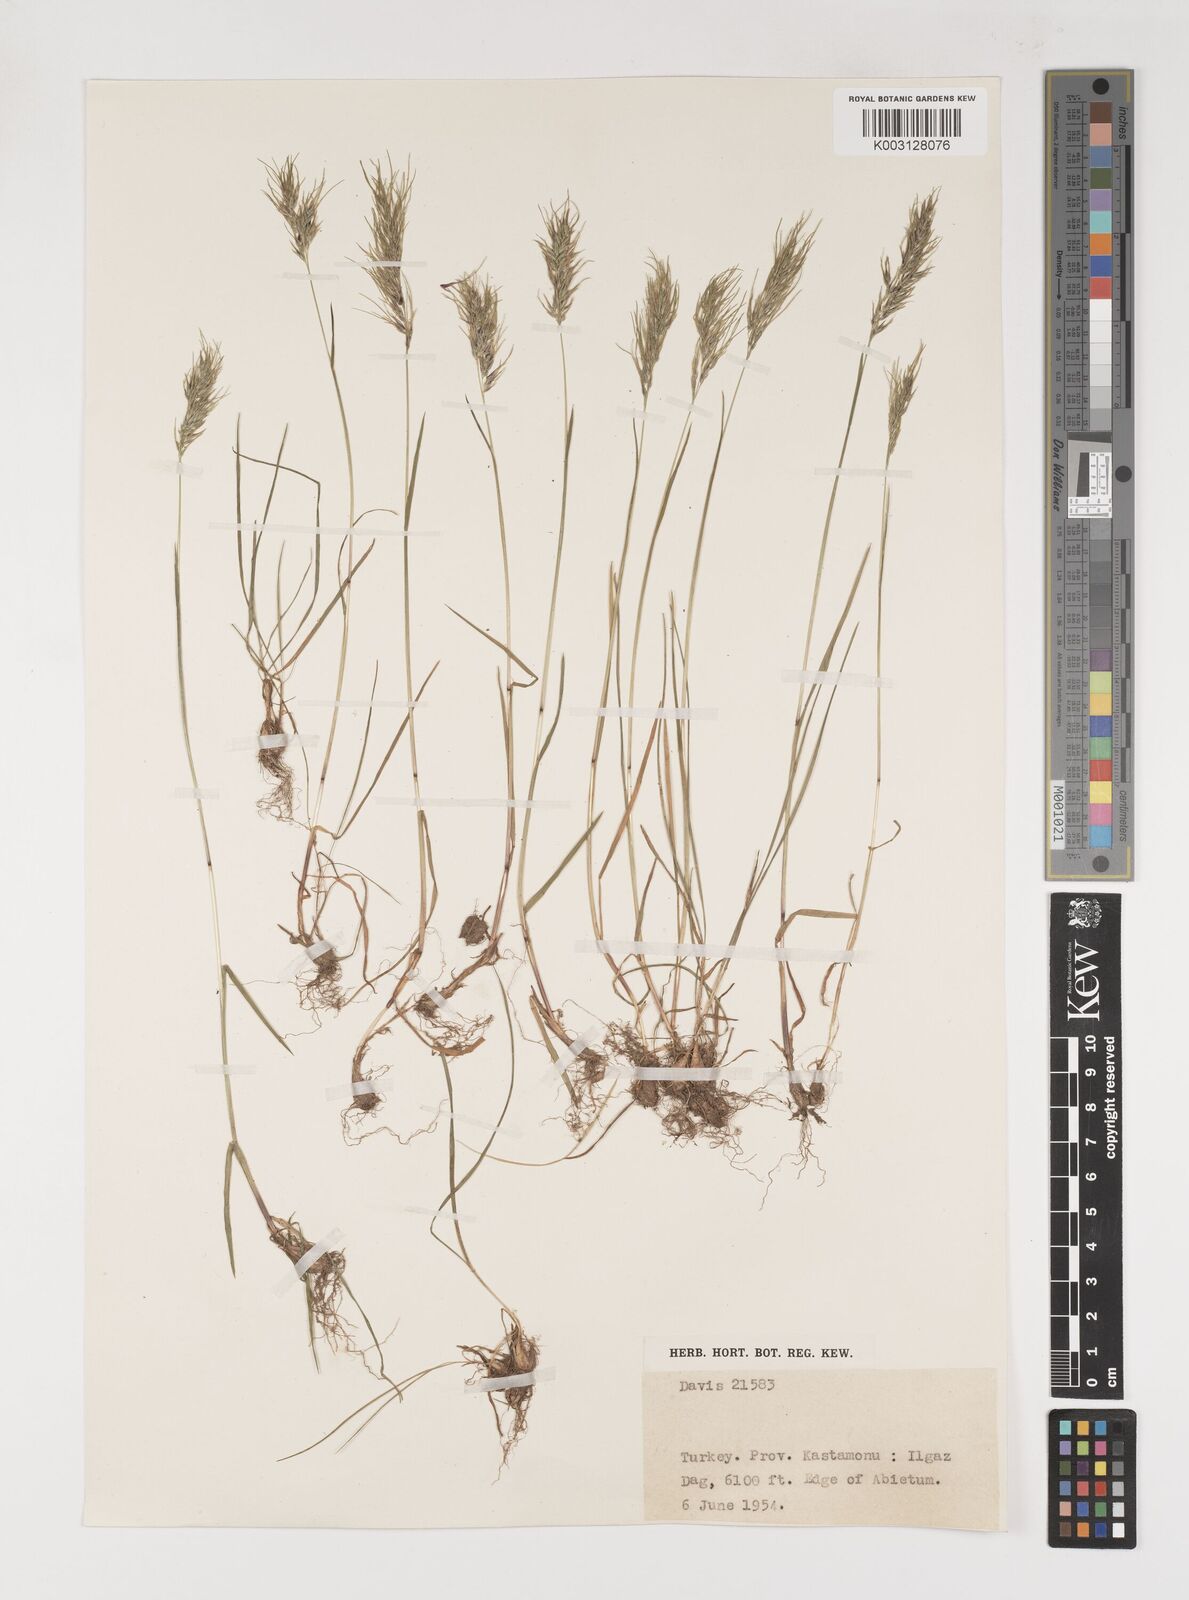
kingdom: Plantae
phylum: Tracheophyta
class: Liliopsida
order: Poales
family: Poaceae
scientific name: Poaceae
